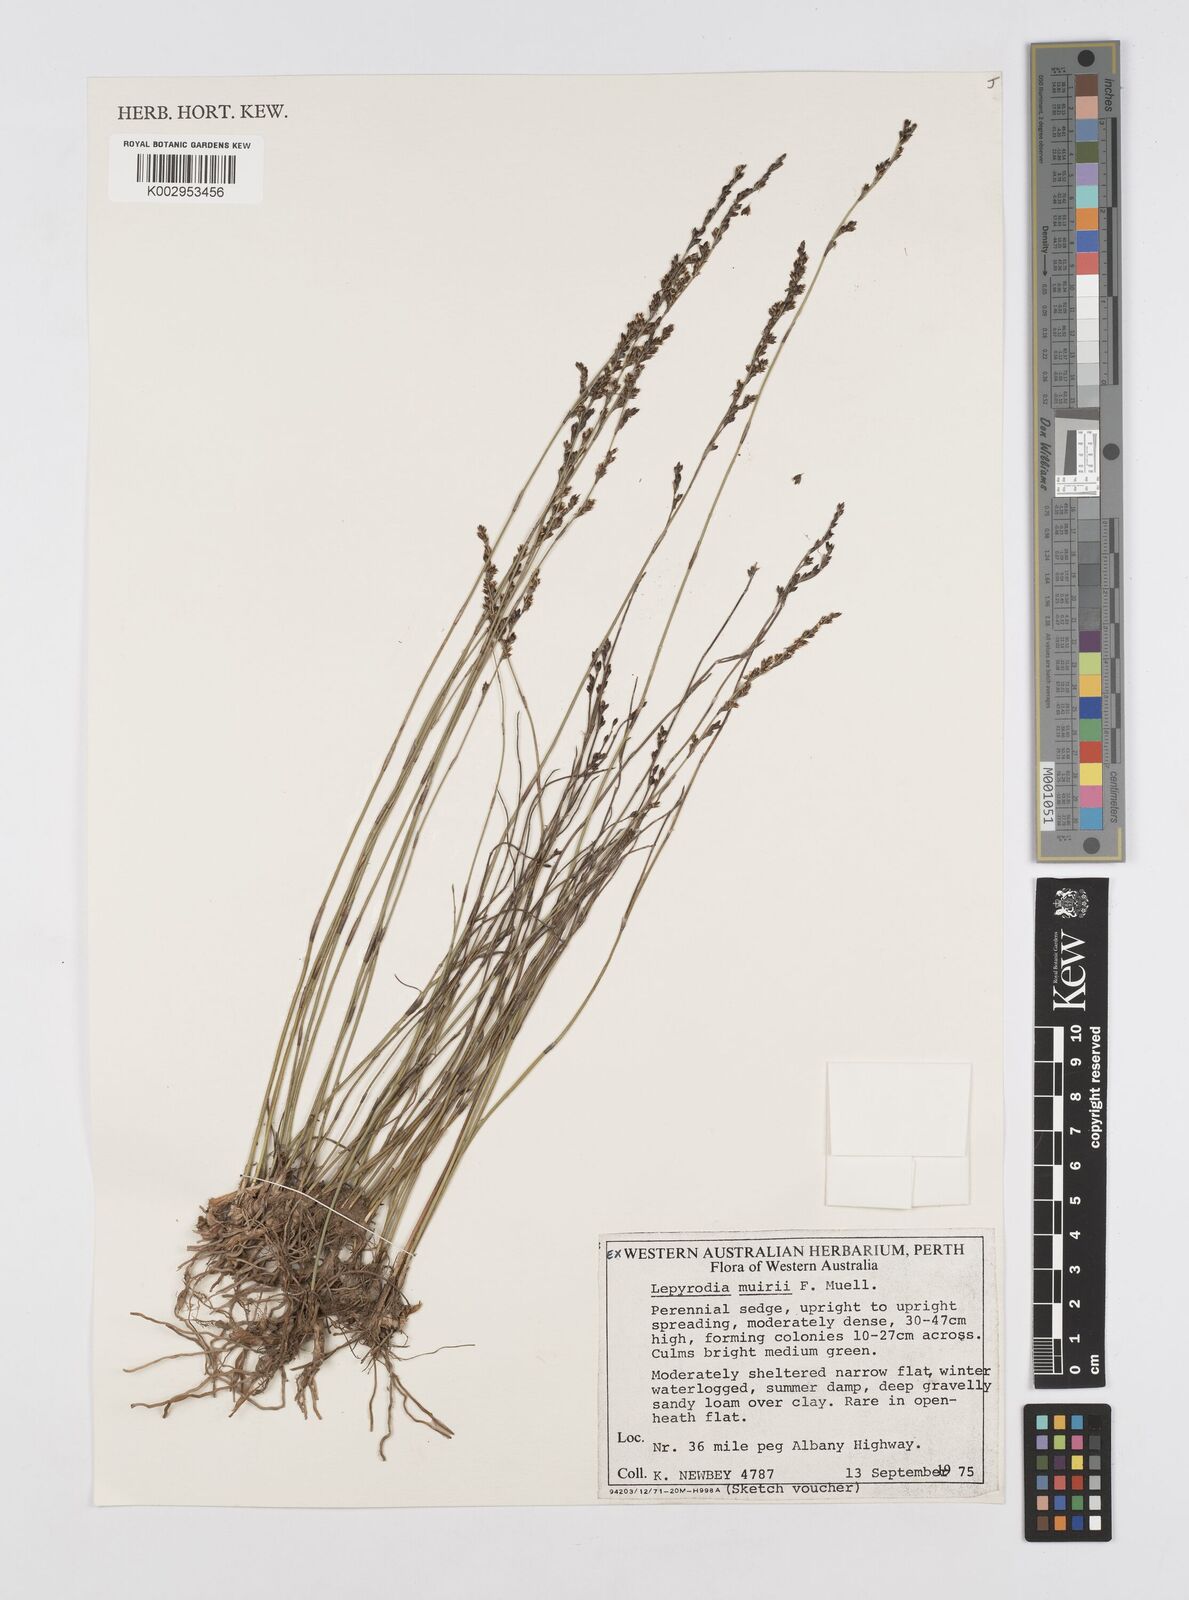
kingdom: Plantae
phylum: Tracheophyta
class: Liliopsida
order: Poales
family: Restionaceae
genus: Lepyrodia
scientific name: Lepyrodia muirii
